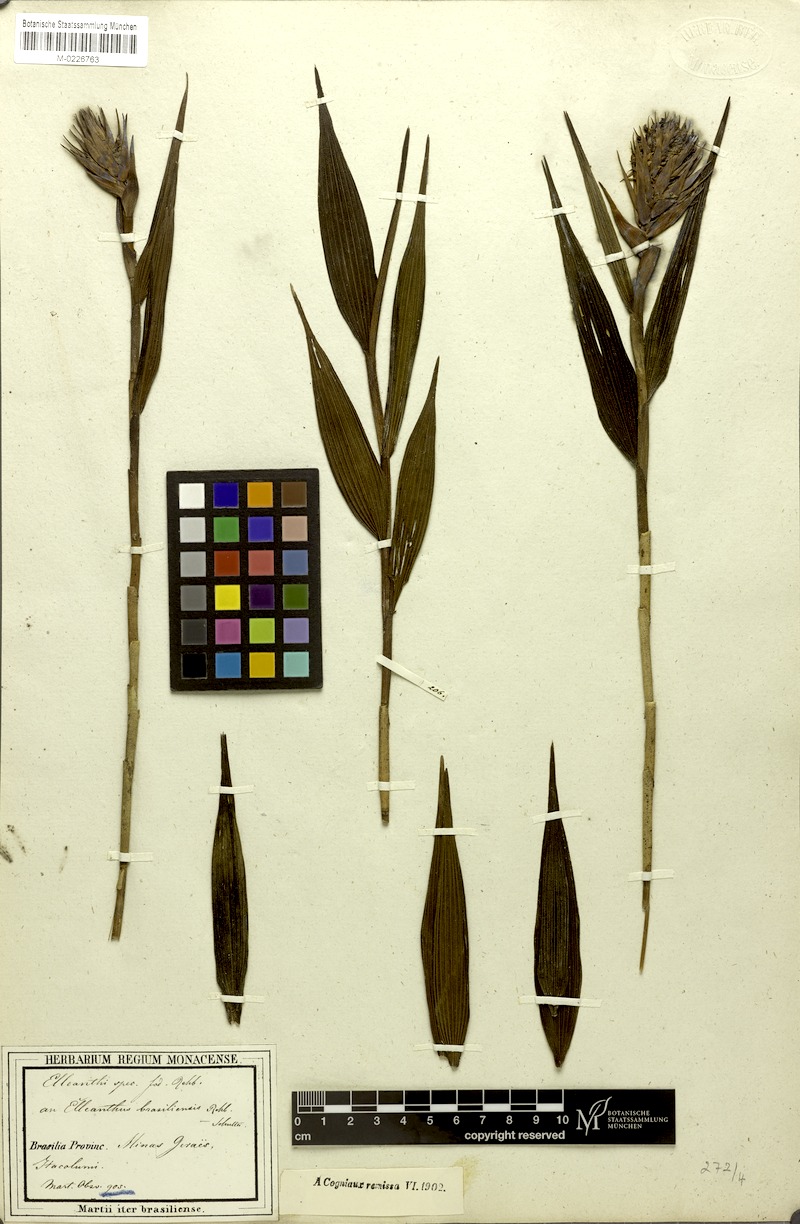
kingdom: Plantae
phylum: Tracheophyta
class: Liliopsida
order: Asparagales
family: Orchidaceae
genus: Elleanthus
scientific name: Elleanthus crinipes
